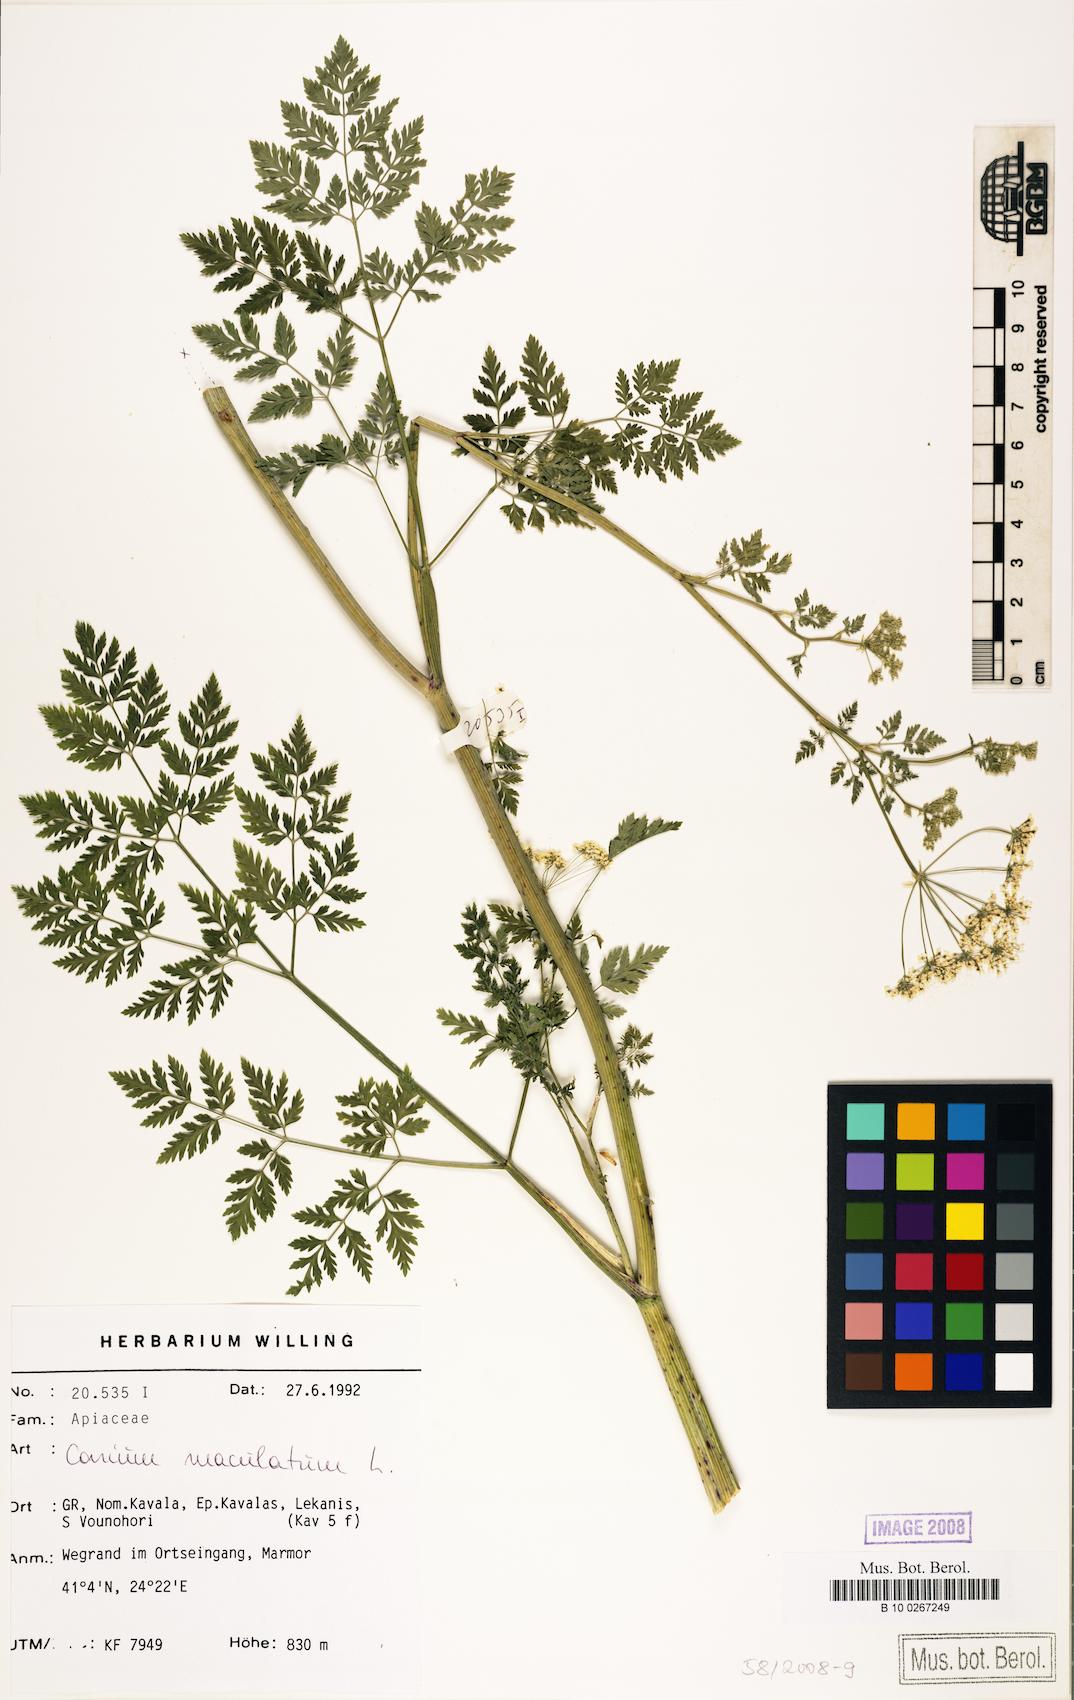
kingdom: Plantae
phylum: Tracheophyta
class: Magnoliopsida
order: Apiales
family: Apiaceae
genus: Conium
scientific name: Conium maculatum
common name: Hemlock
